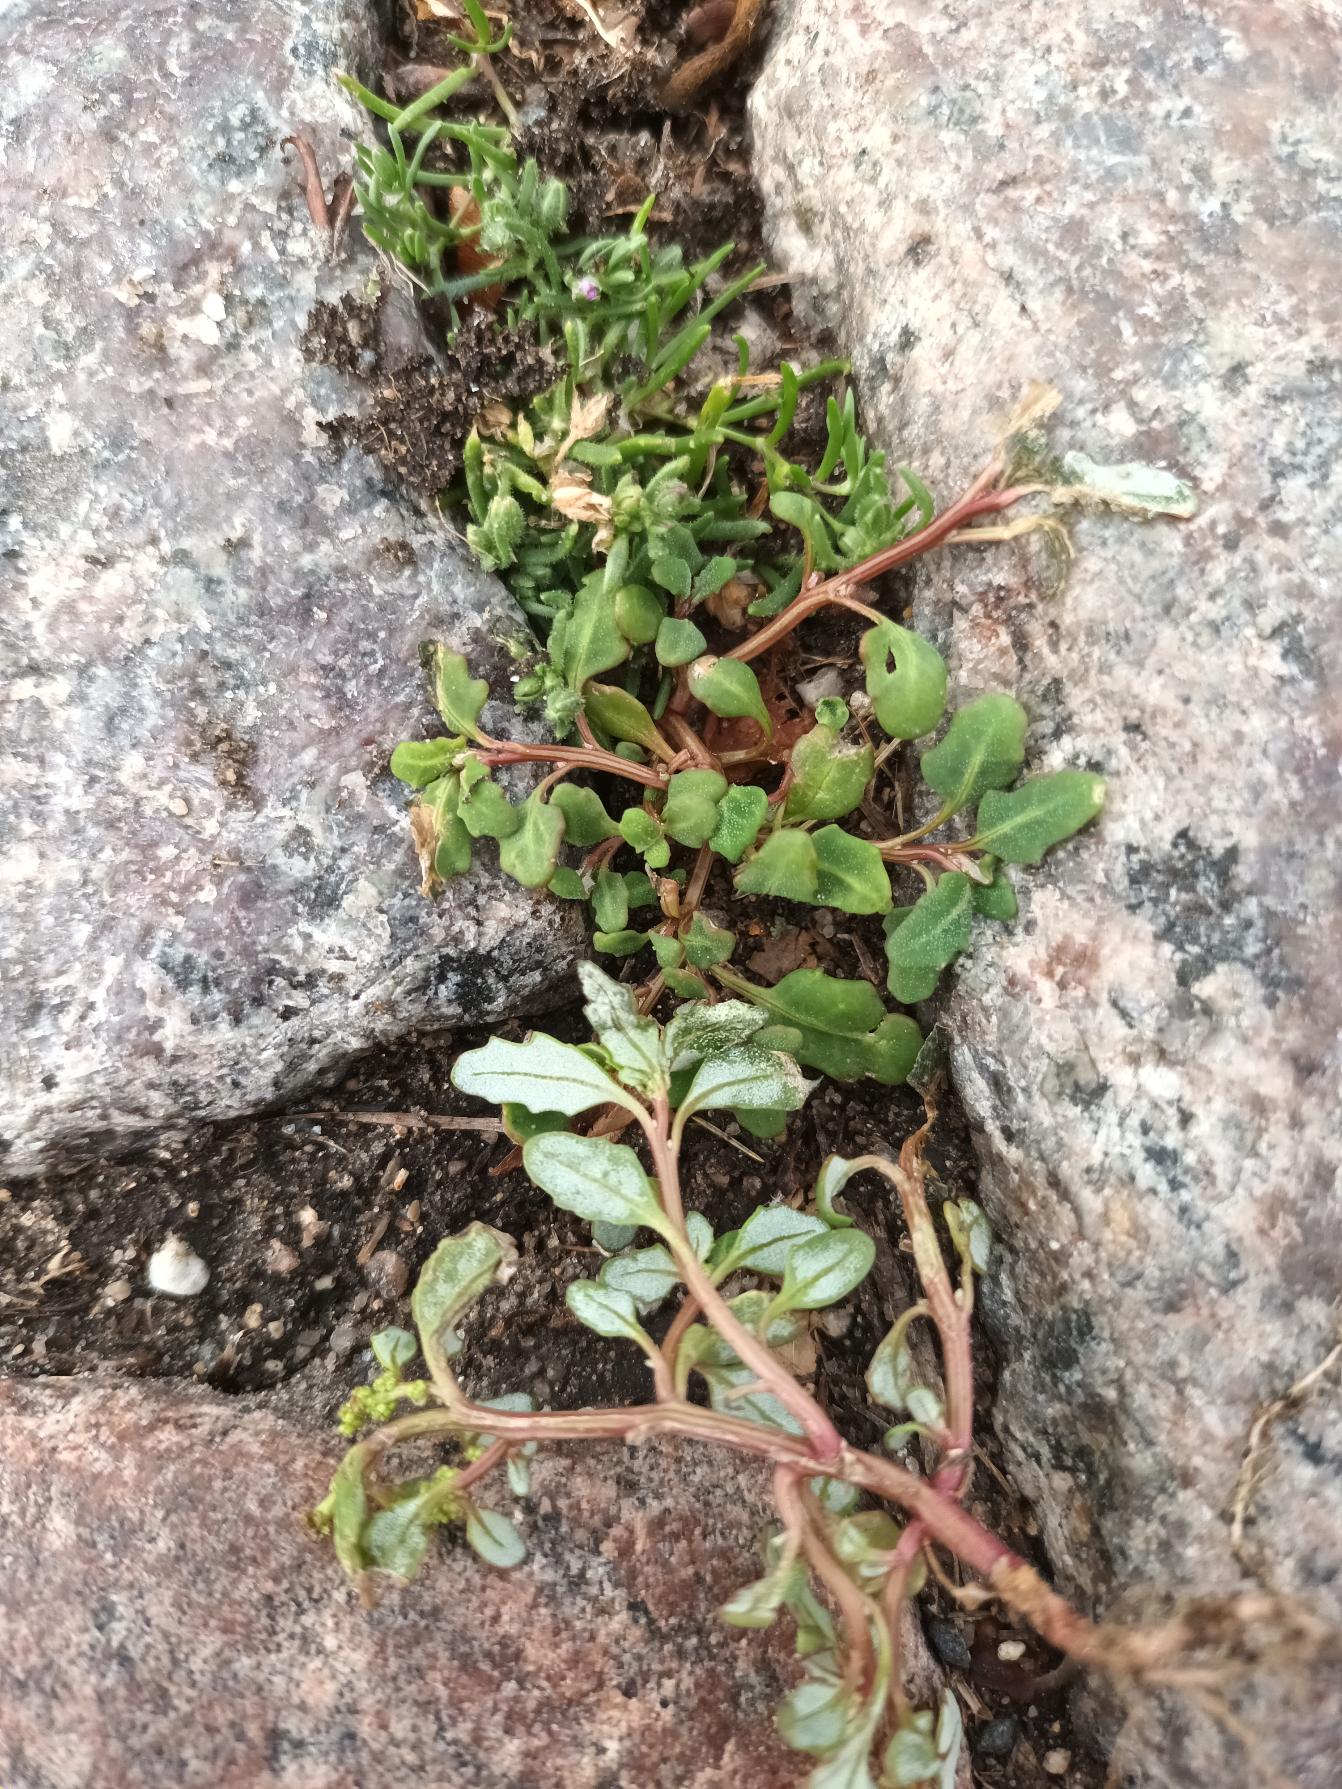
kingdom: Plantae
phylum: Tracheophyta
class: Magnoliopsida
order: Caryophyllales
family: Amaranthaceae
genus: Oxybasis
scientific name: Oxybasis glauca
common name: Blågrøn gåsefod
